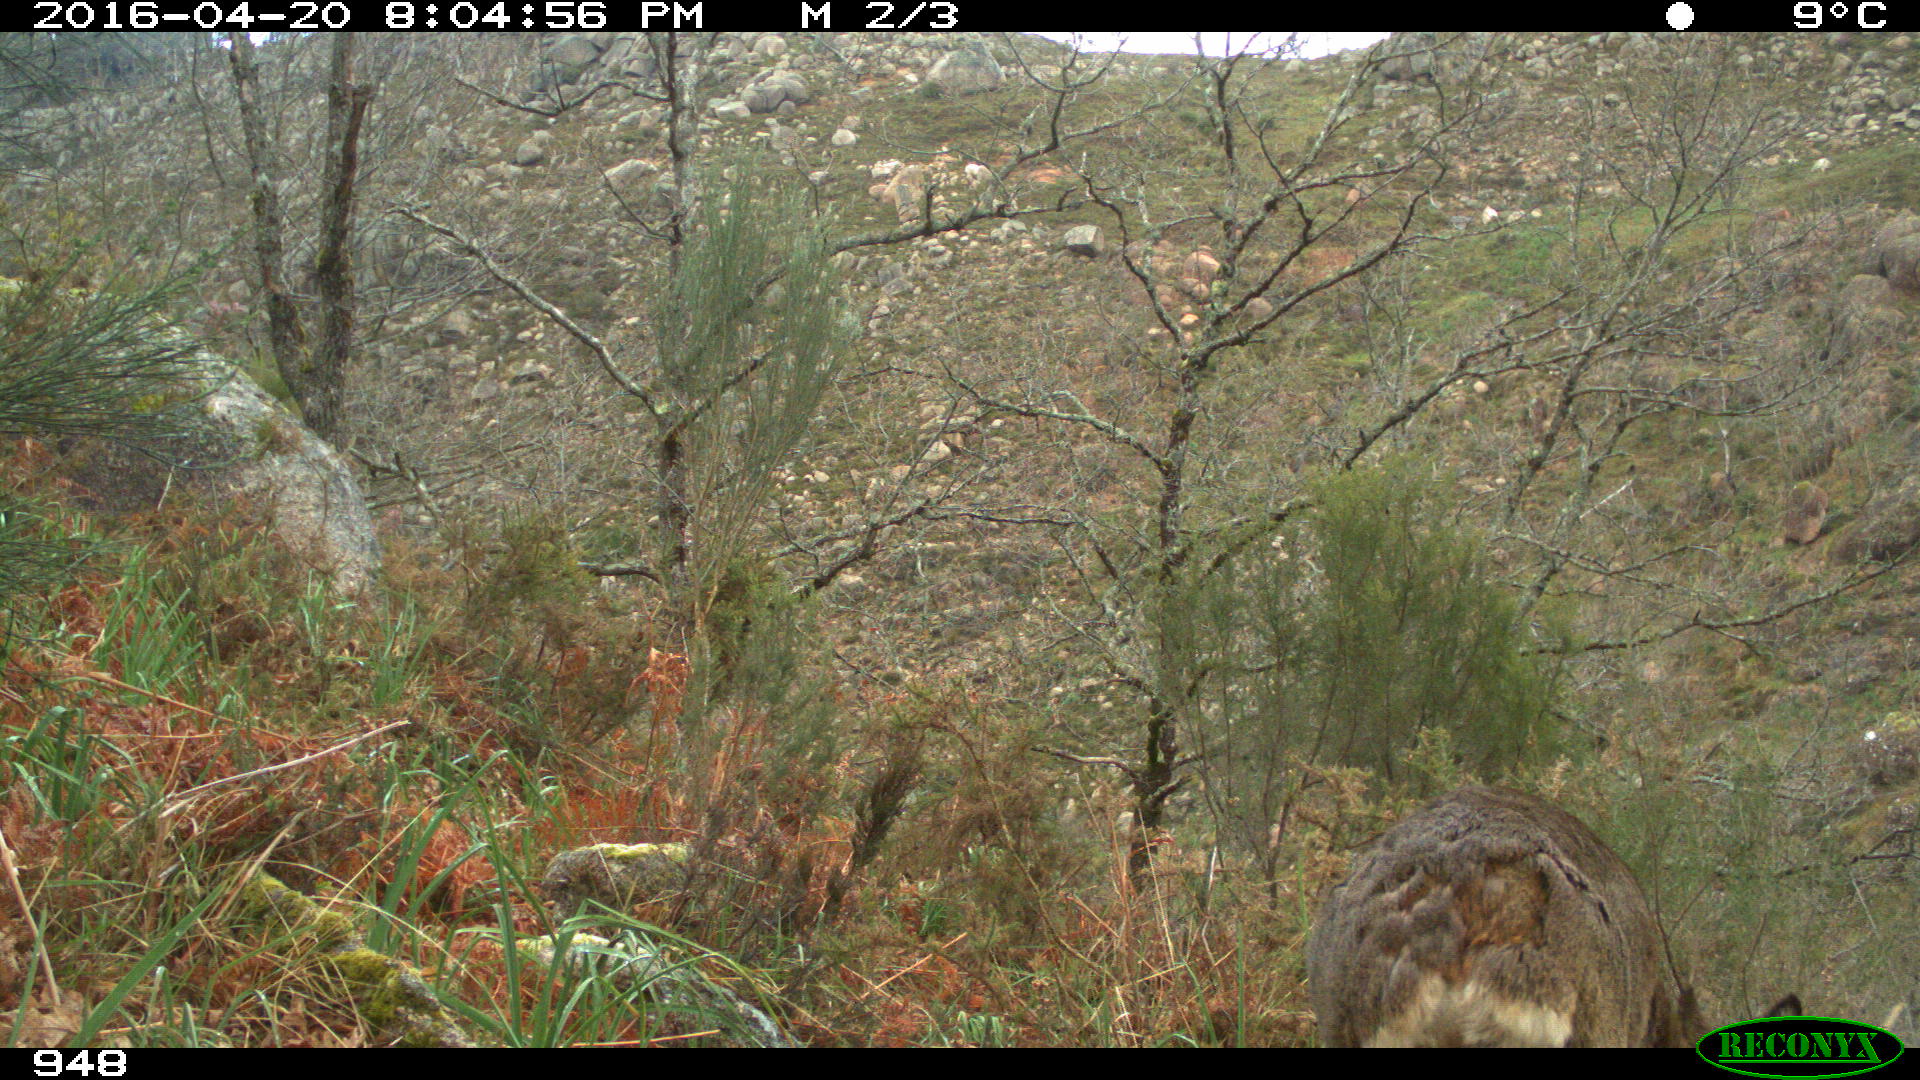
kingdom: Animalia
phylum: Chordata
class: Mammalia
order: Artiodactyla
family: Cervidae
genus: Capreolus
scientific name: Capreolus capreolus
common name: Western roe deer
